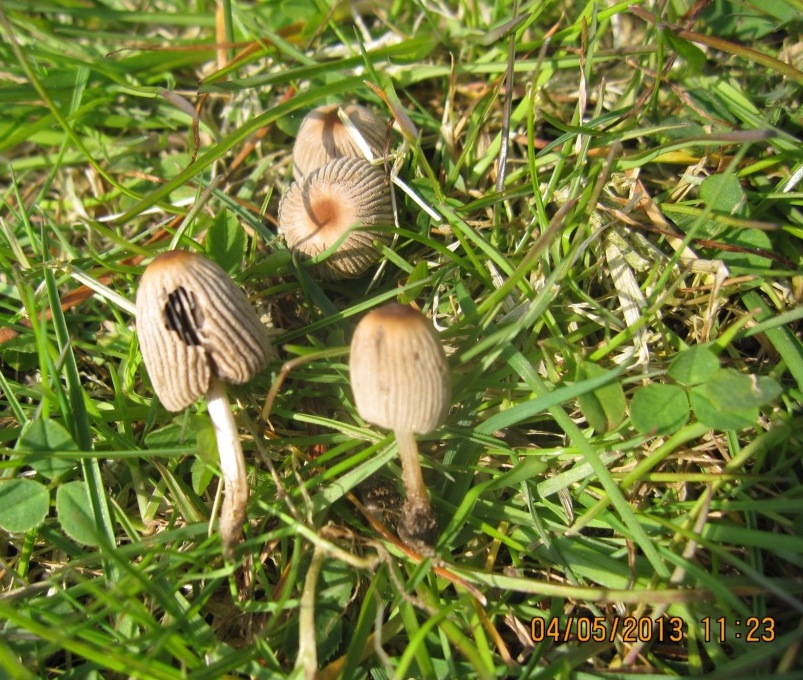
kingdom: Fungi
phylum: Basidiomycota
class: Agaricomycetes
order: Agaricales
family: Psathyrellaceae
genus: Parasola
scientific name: Parasola schroeteri
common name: bredsporet hjulhat
